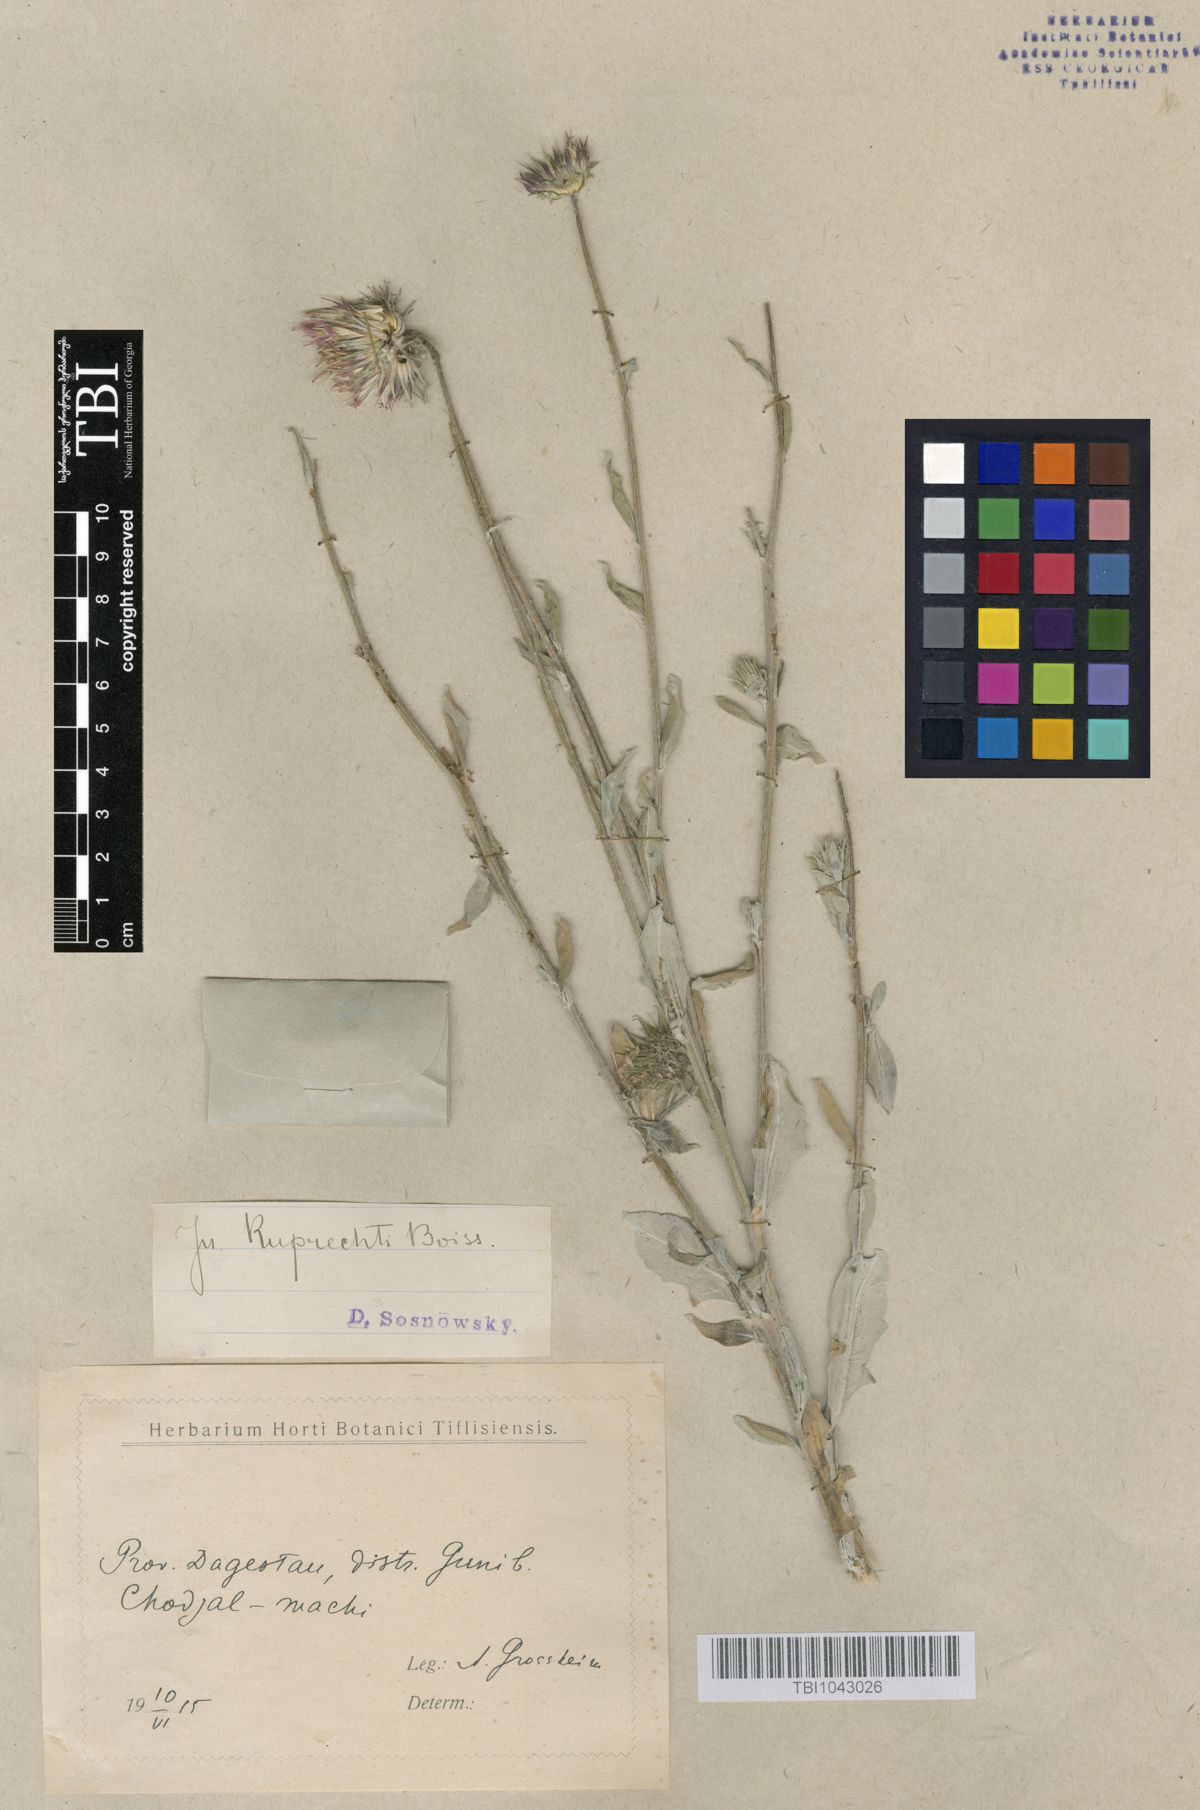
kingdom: Plantae
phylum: Tracheophyta
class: Magnoliopsida
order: Asterales
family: Asteraceae
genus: Jurinea
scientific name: Jurinea ruprechtii
